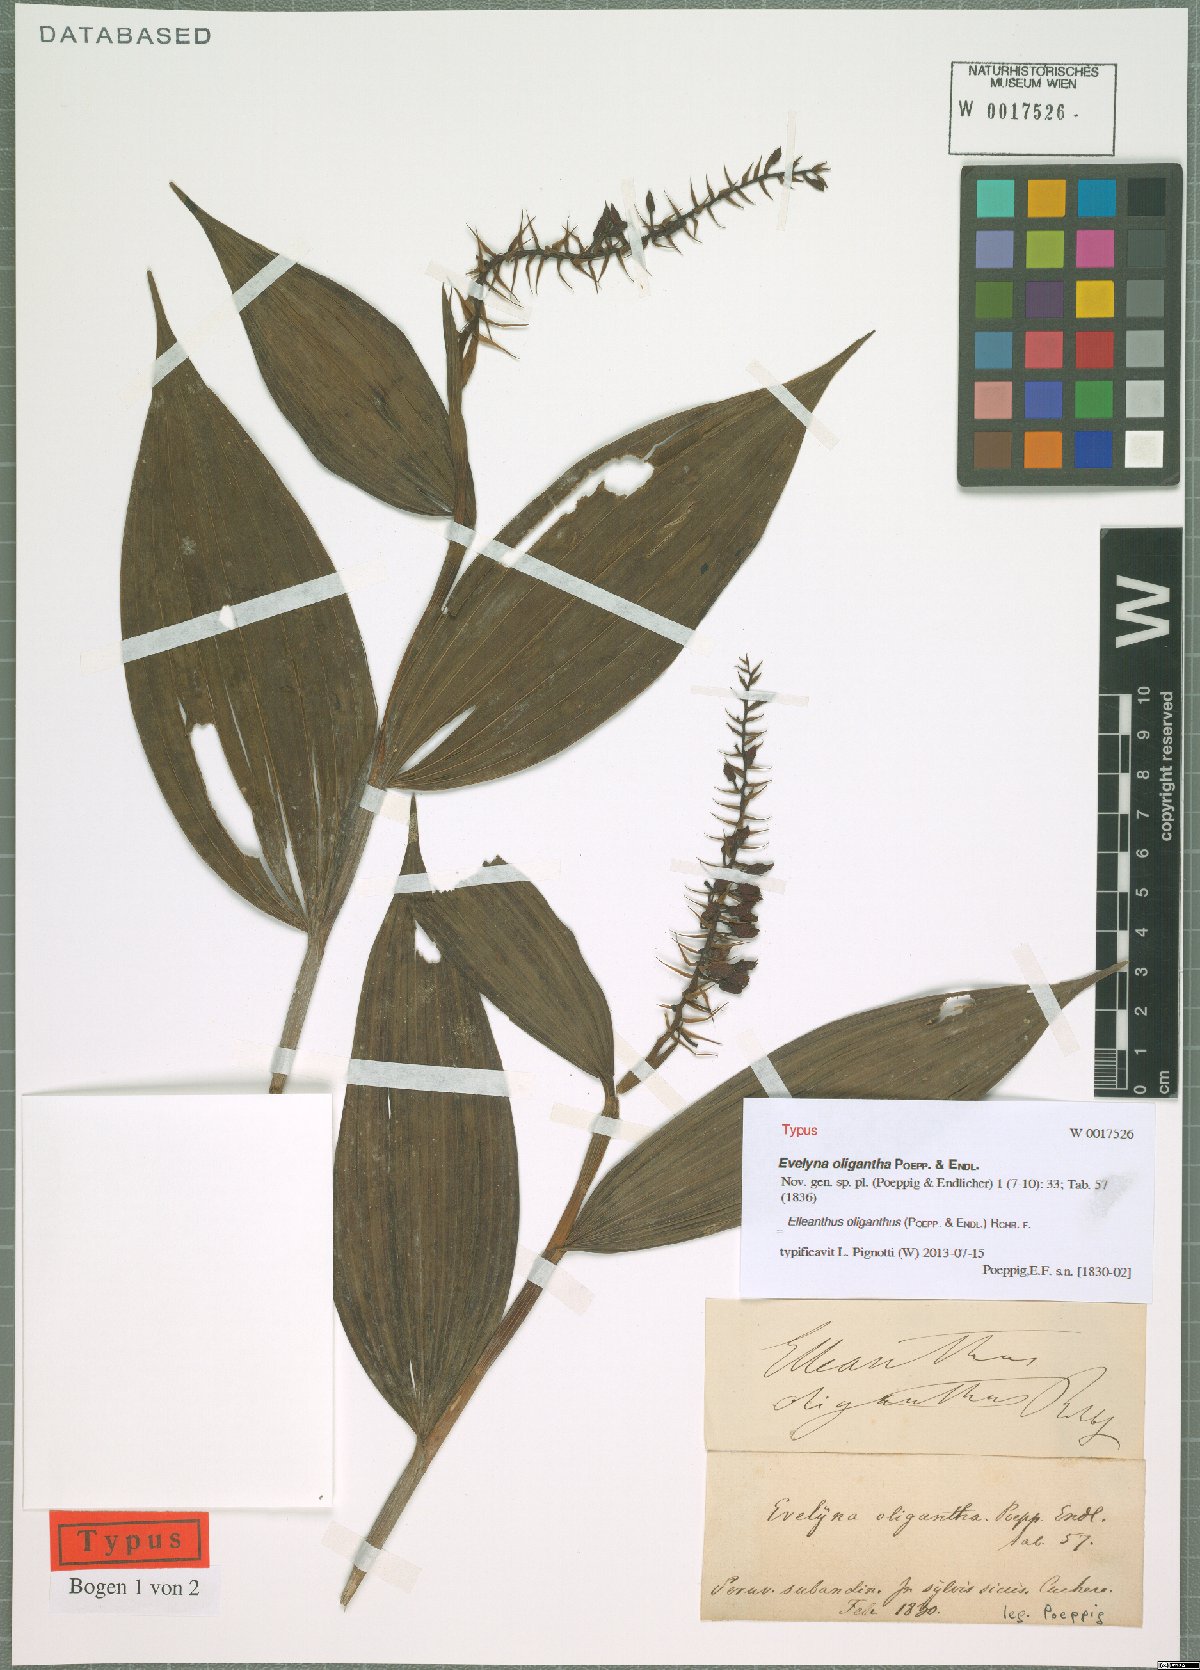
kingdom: Plantae
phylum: Tracheophyta
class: Liliopsida
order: Asparagales
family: Orchidaceae
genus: Elleanthus
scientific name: Elleanthus oliganthus
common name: Sparse blooming elleanthus
